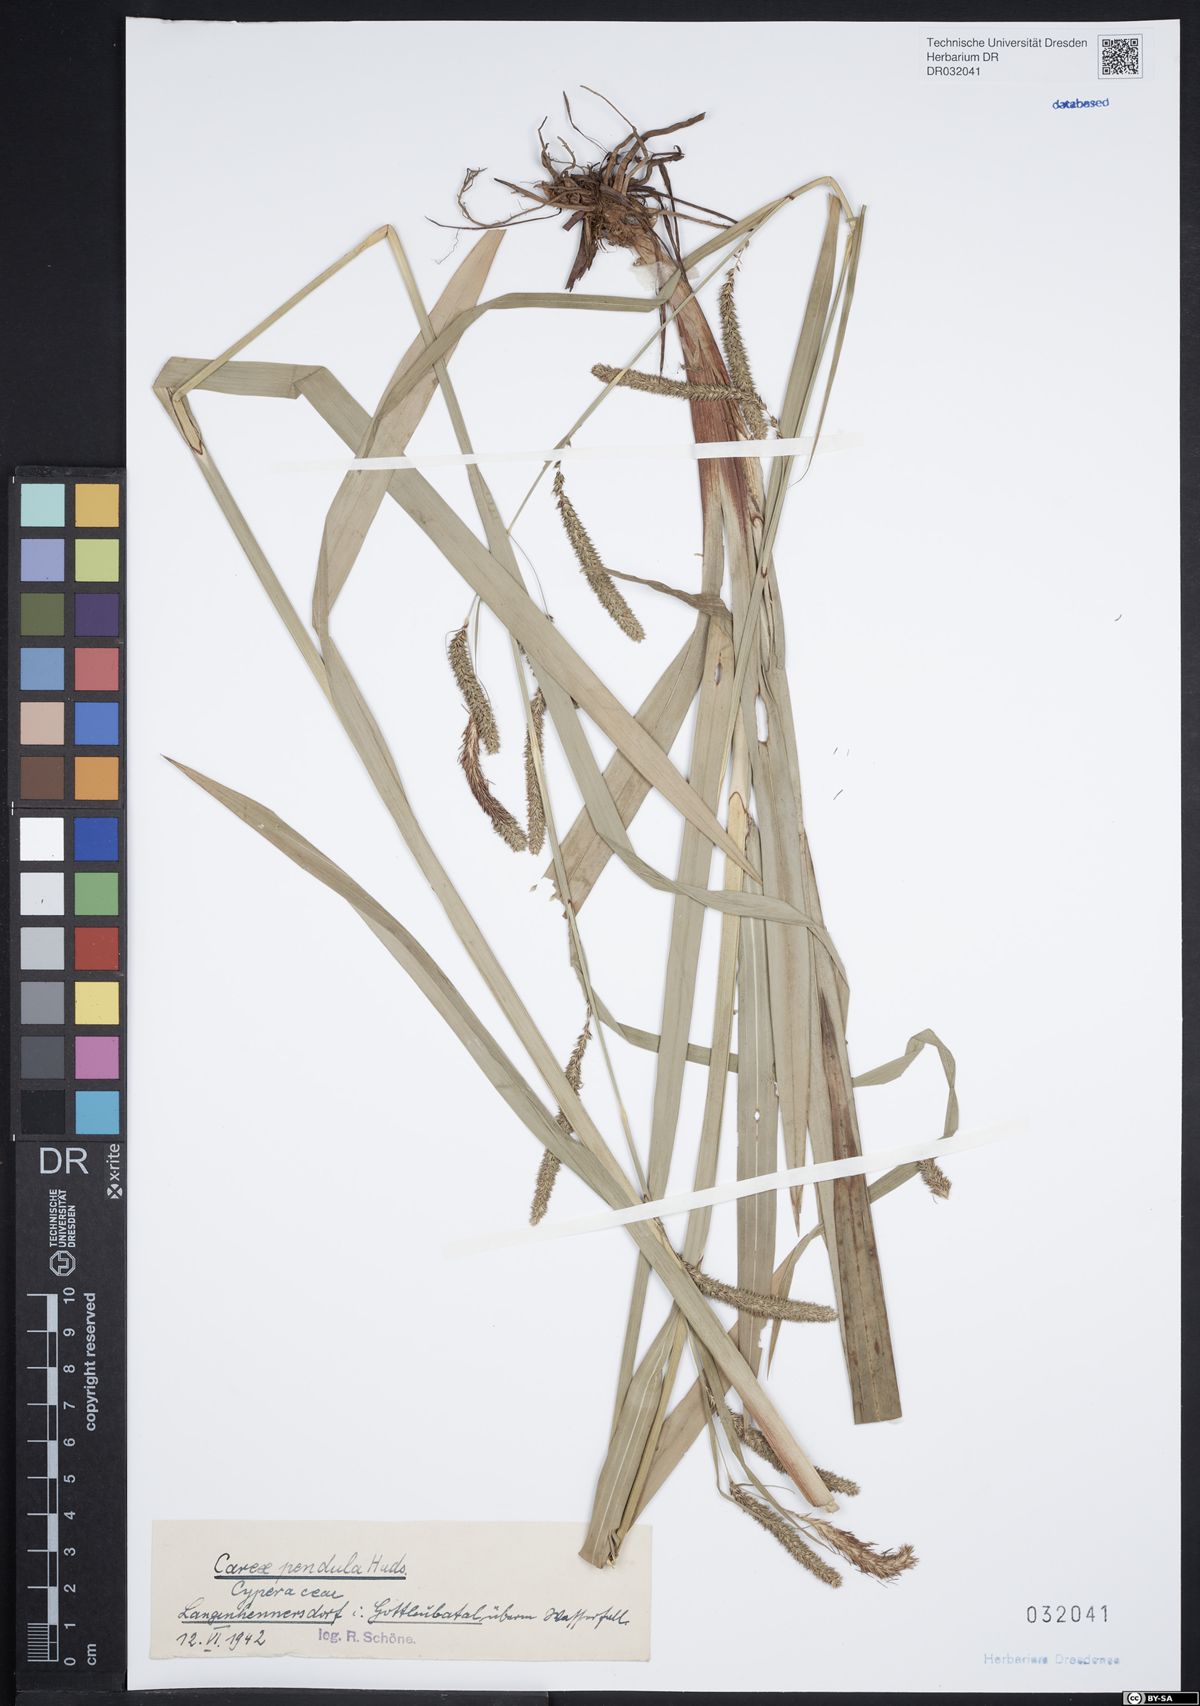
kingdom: Plantae
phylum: Tracheophyta
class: Liliopsida
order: Poales
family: Cyperaceae
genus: Carex
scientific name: Carex pendula
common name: Pendulous sedge
